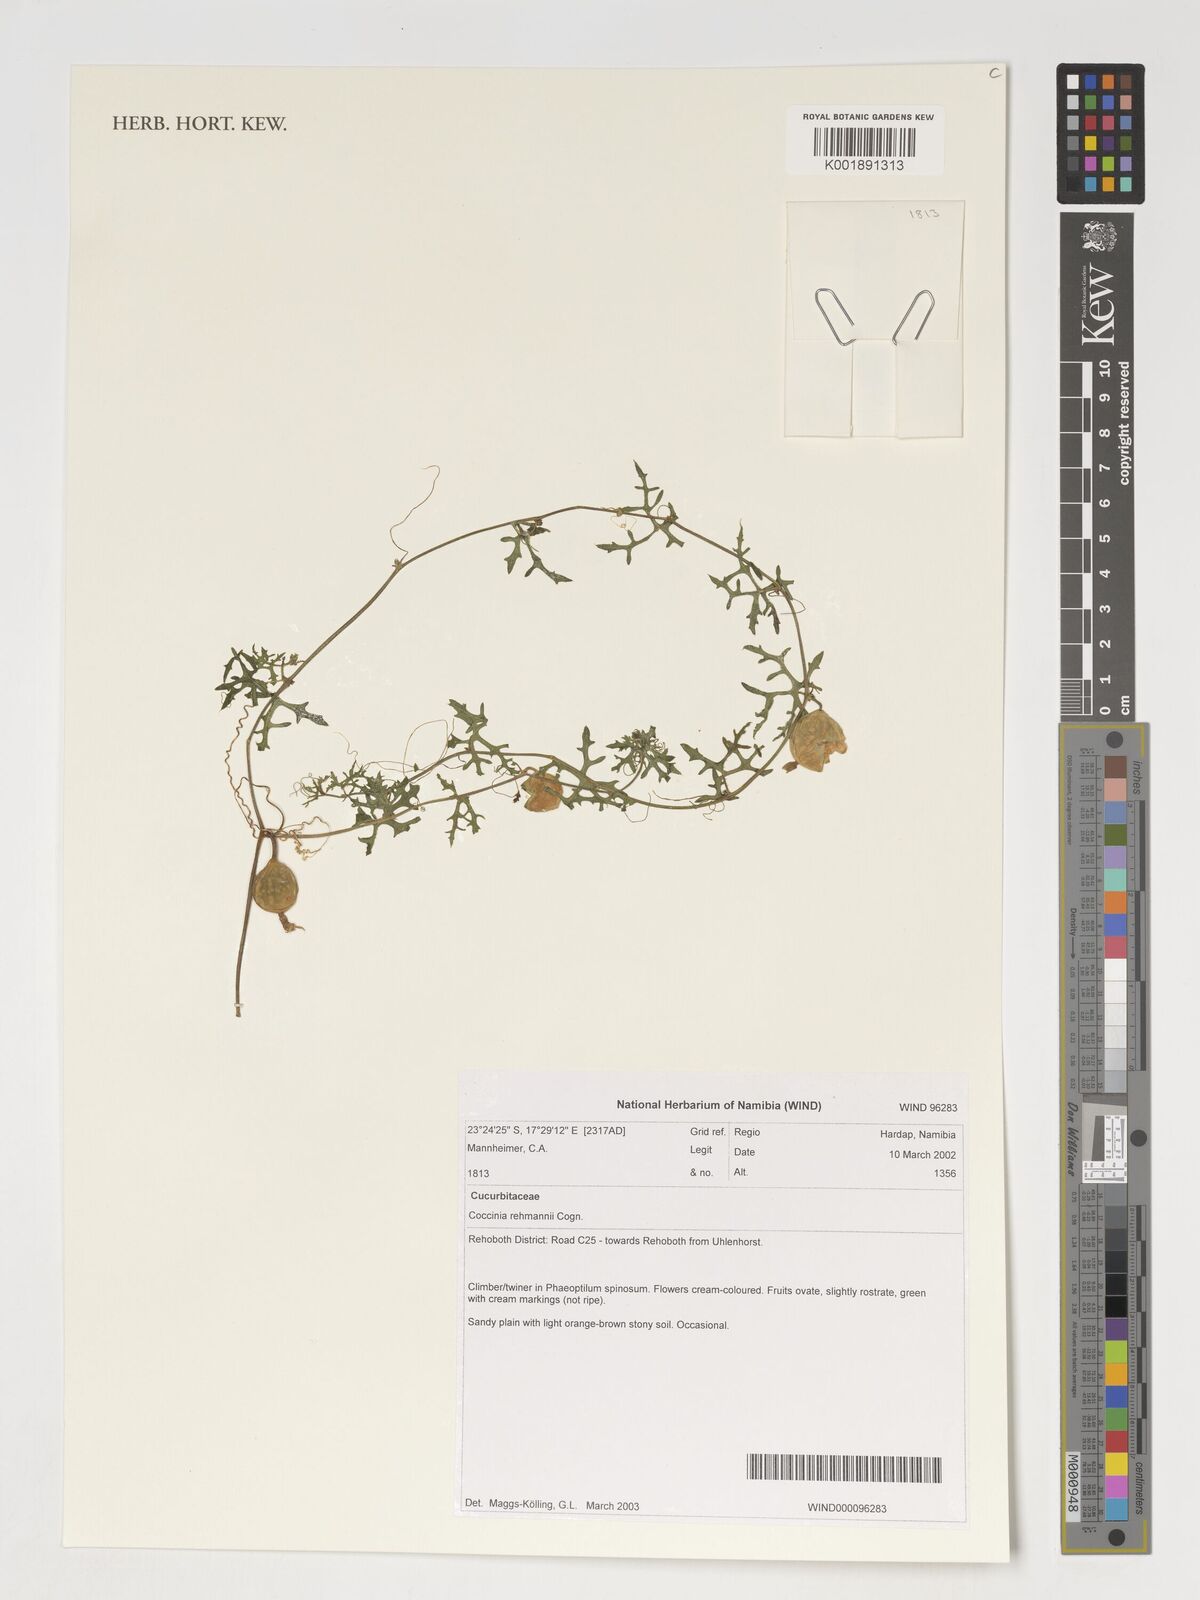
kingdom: Plantae
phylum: Tracheophyta
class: Magnoliopsida
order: Cucurbitales
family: Cucurbitaceae
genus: Coccinia
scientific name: Coccinia rehmannii
